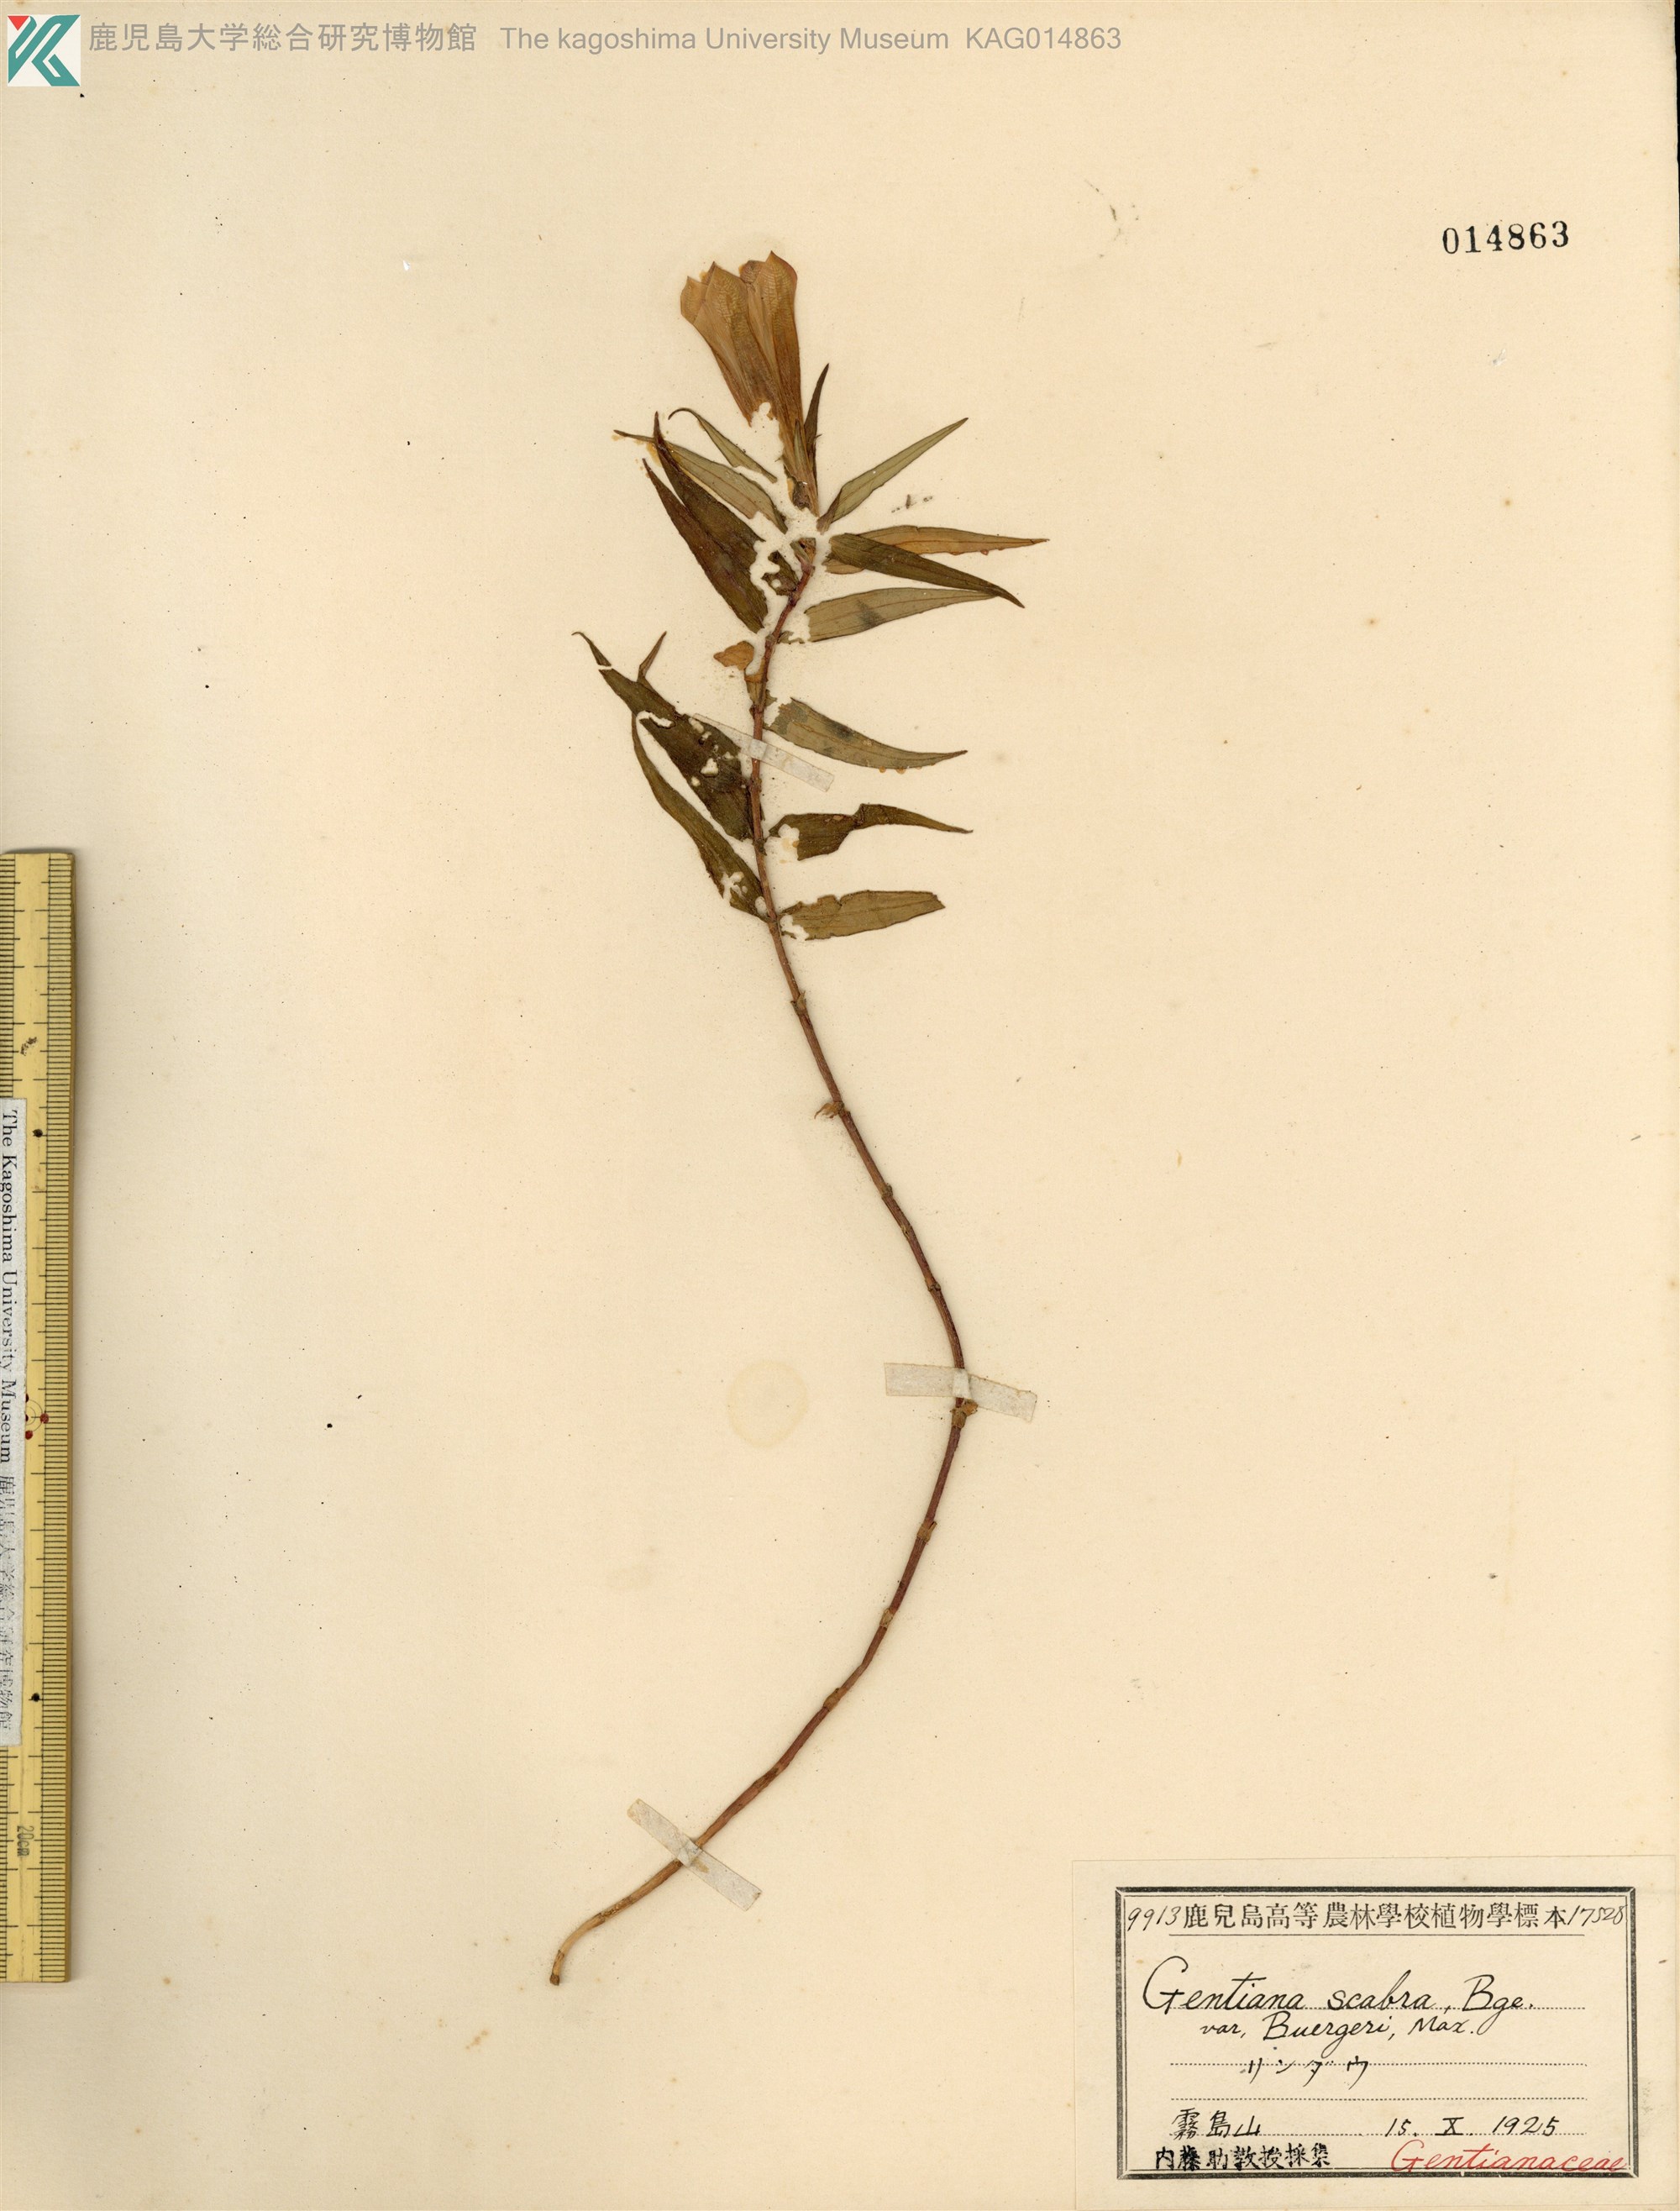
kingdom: Plantae
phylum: Tracheophyta
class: Magnoliopsida
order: Gentianales
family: Gentianaceae
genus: Gentiana
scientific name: Gentiana scabra
